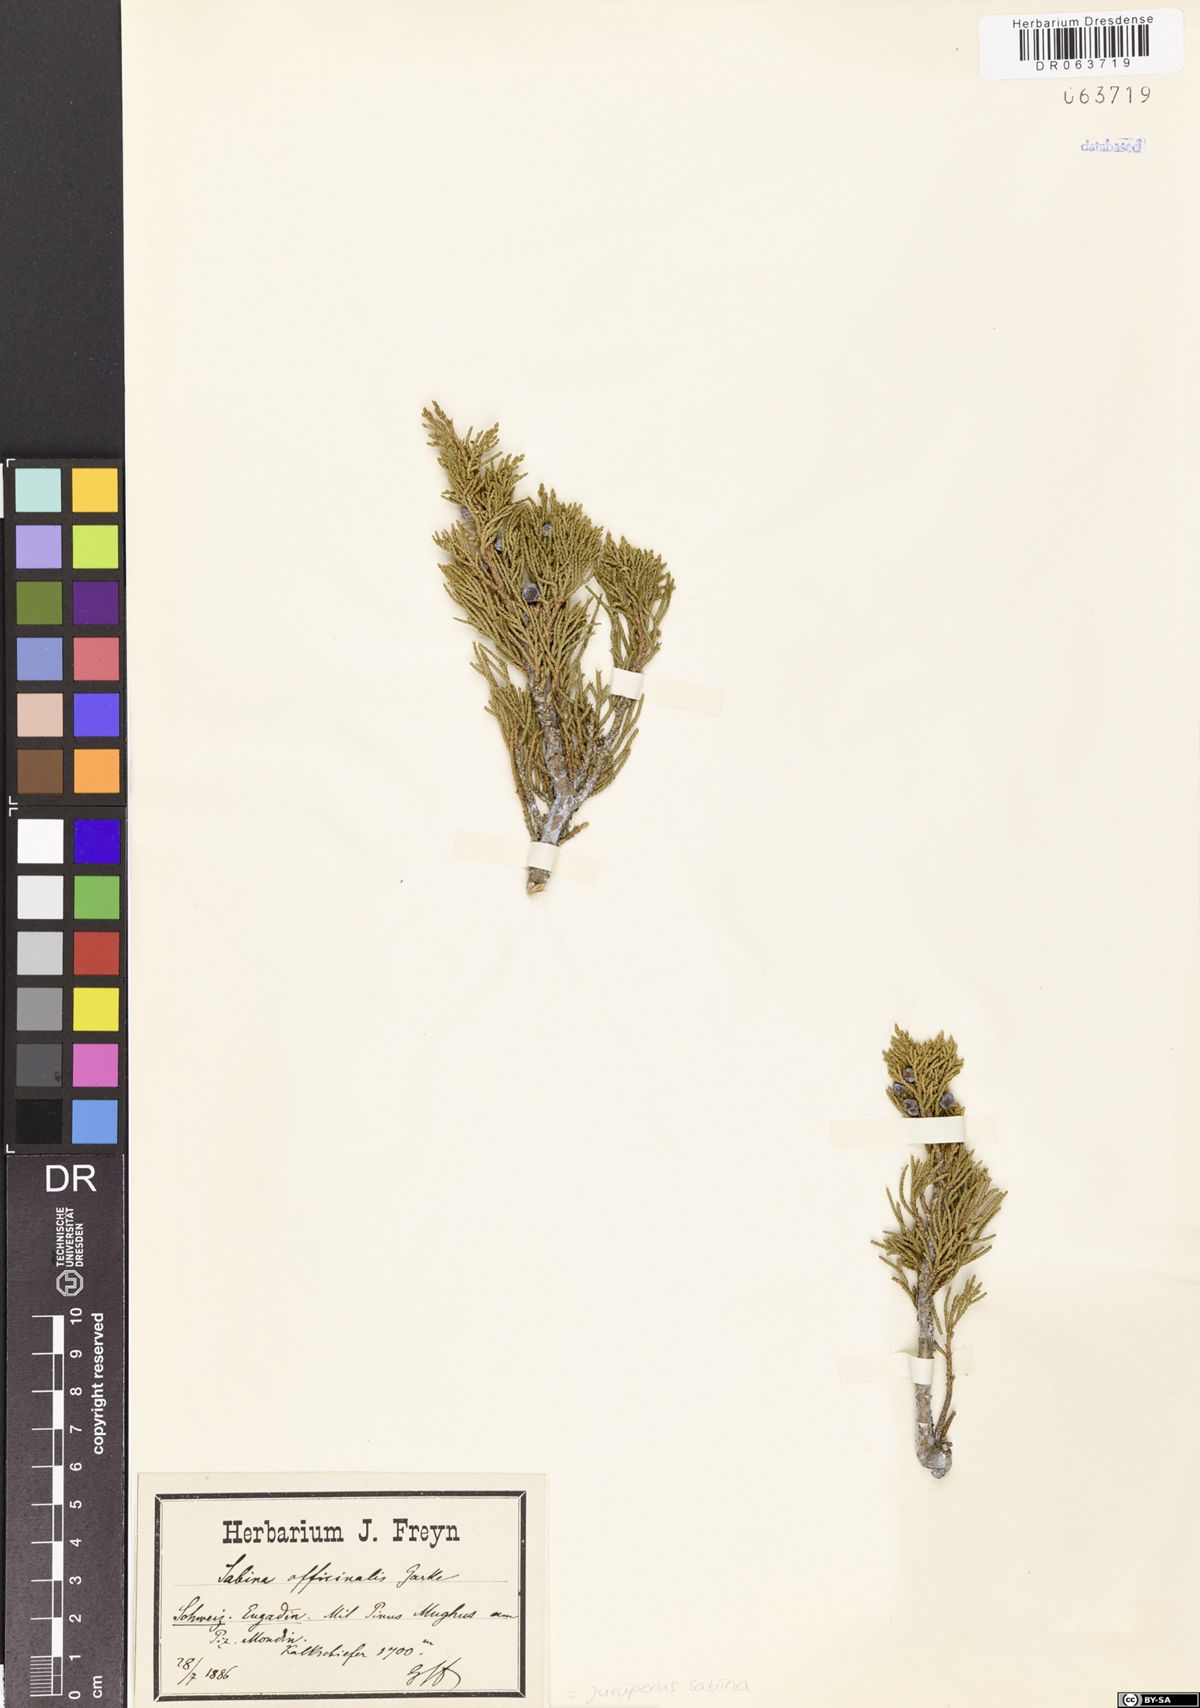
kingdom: Plantae
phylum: Tracheophyta
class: Pinopsida
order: Pinales
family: Cupressaceae
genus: Juniperus
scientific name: Juniperus sabina
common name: Savin
